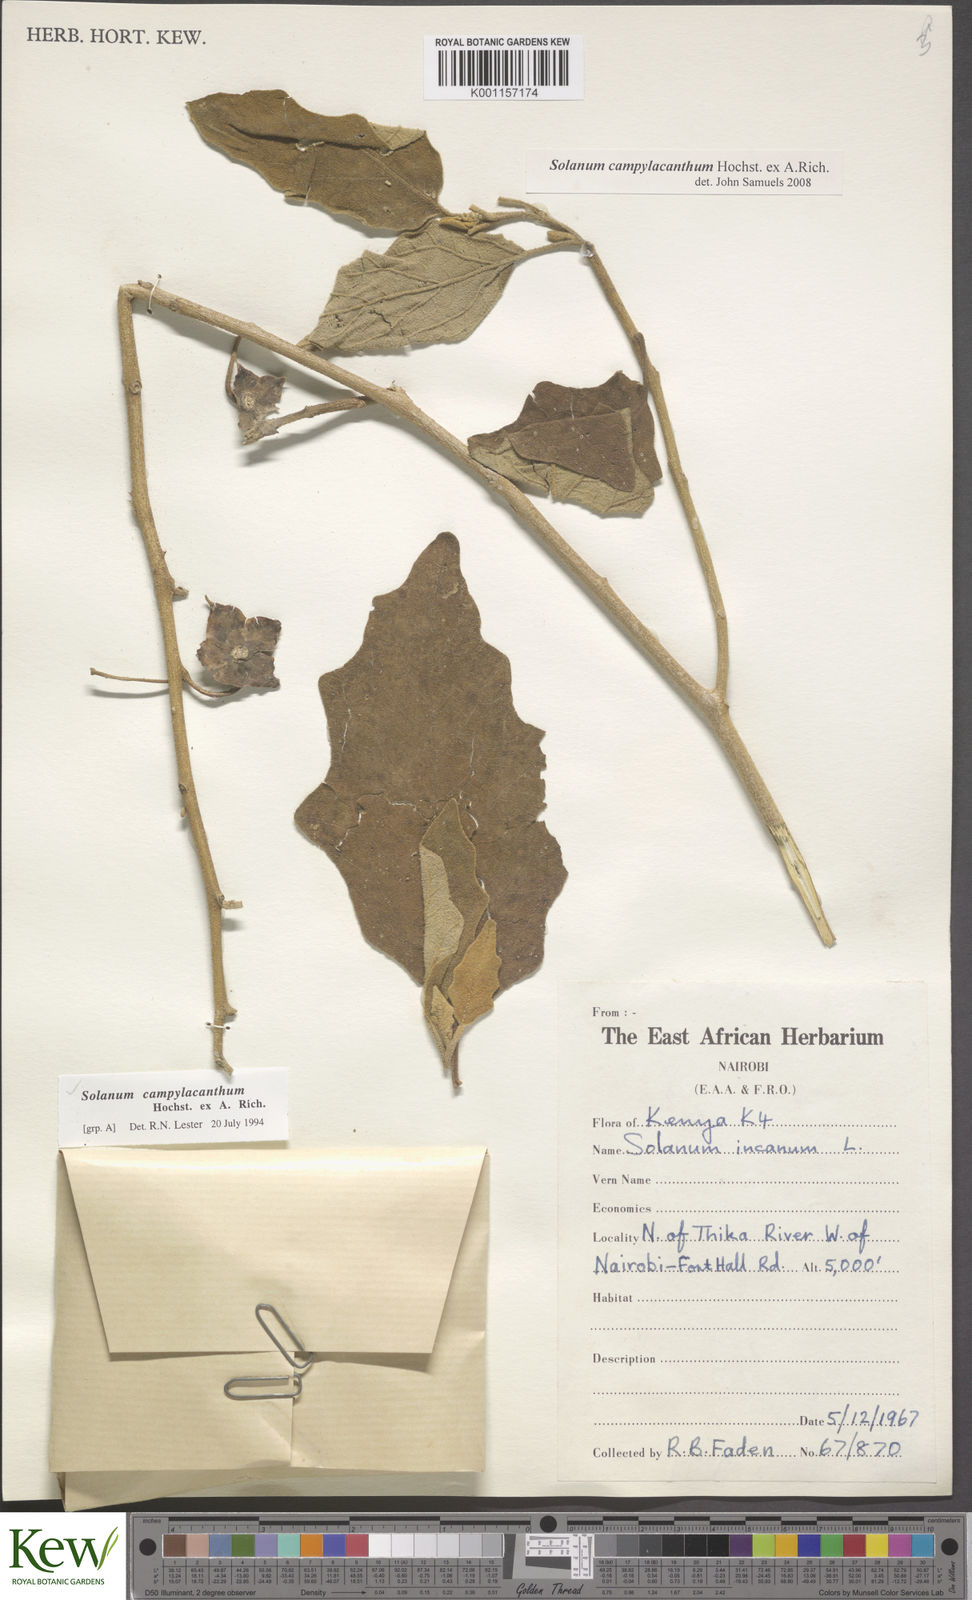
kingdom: Plantae
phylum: Tracheophyta
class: Magnoliopsida
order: Solanales
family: Solanaceae
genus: Solanum
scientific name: Solanum campylacanthum
